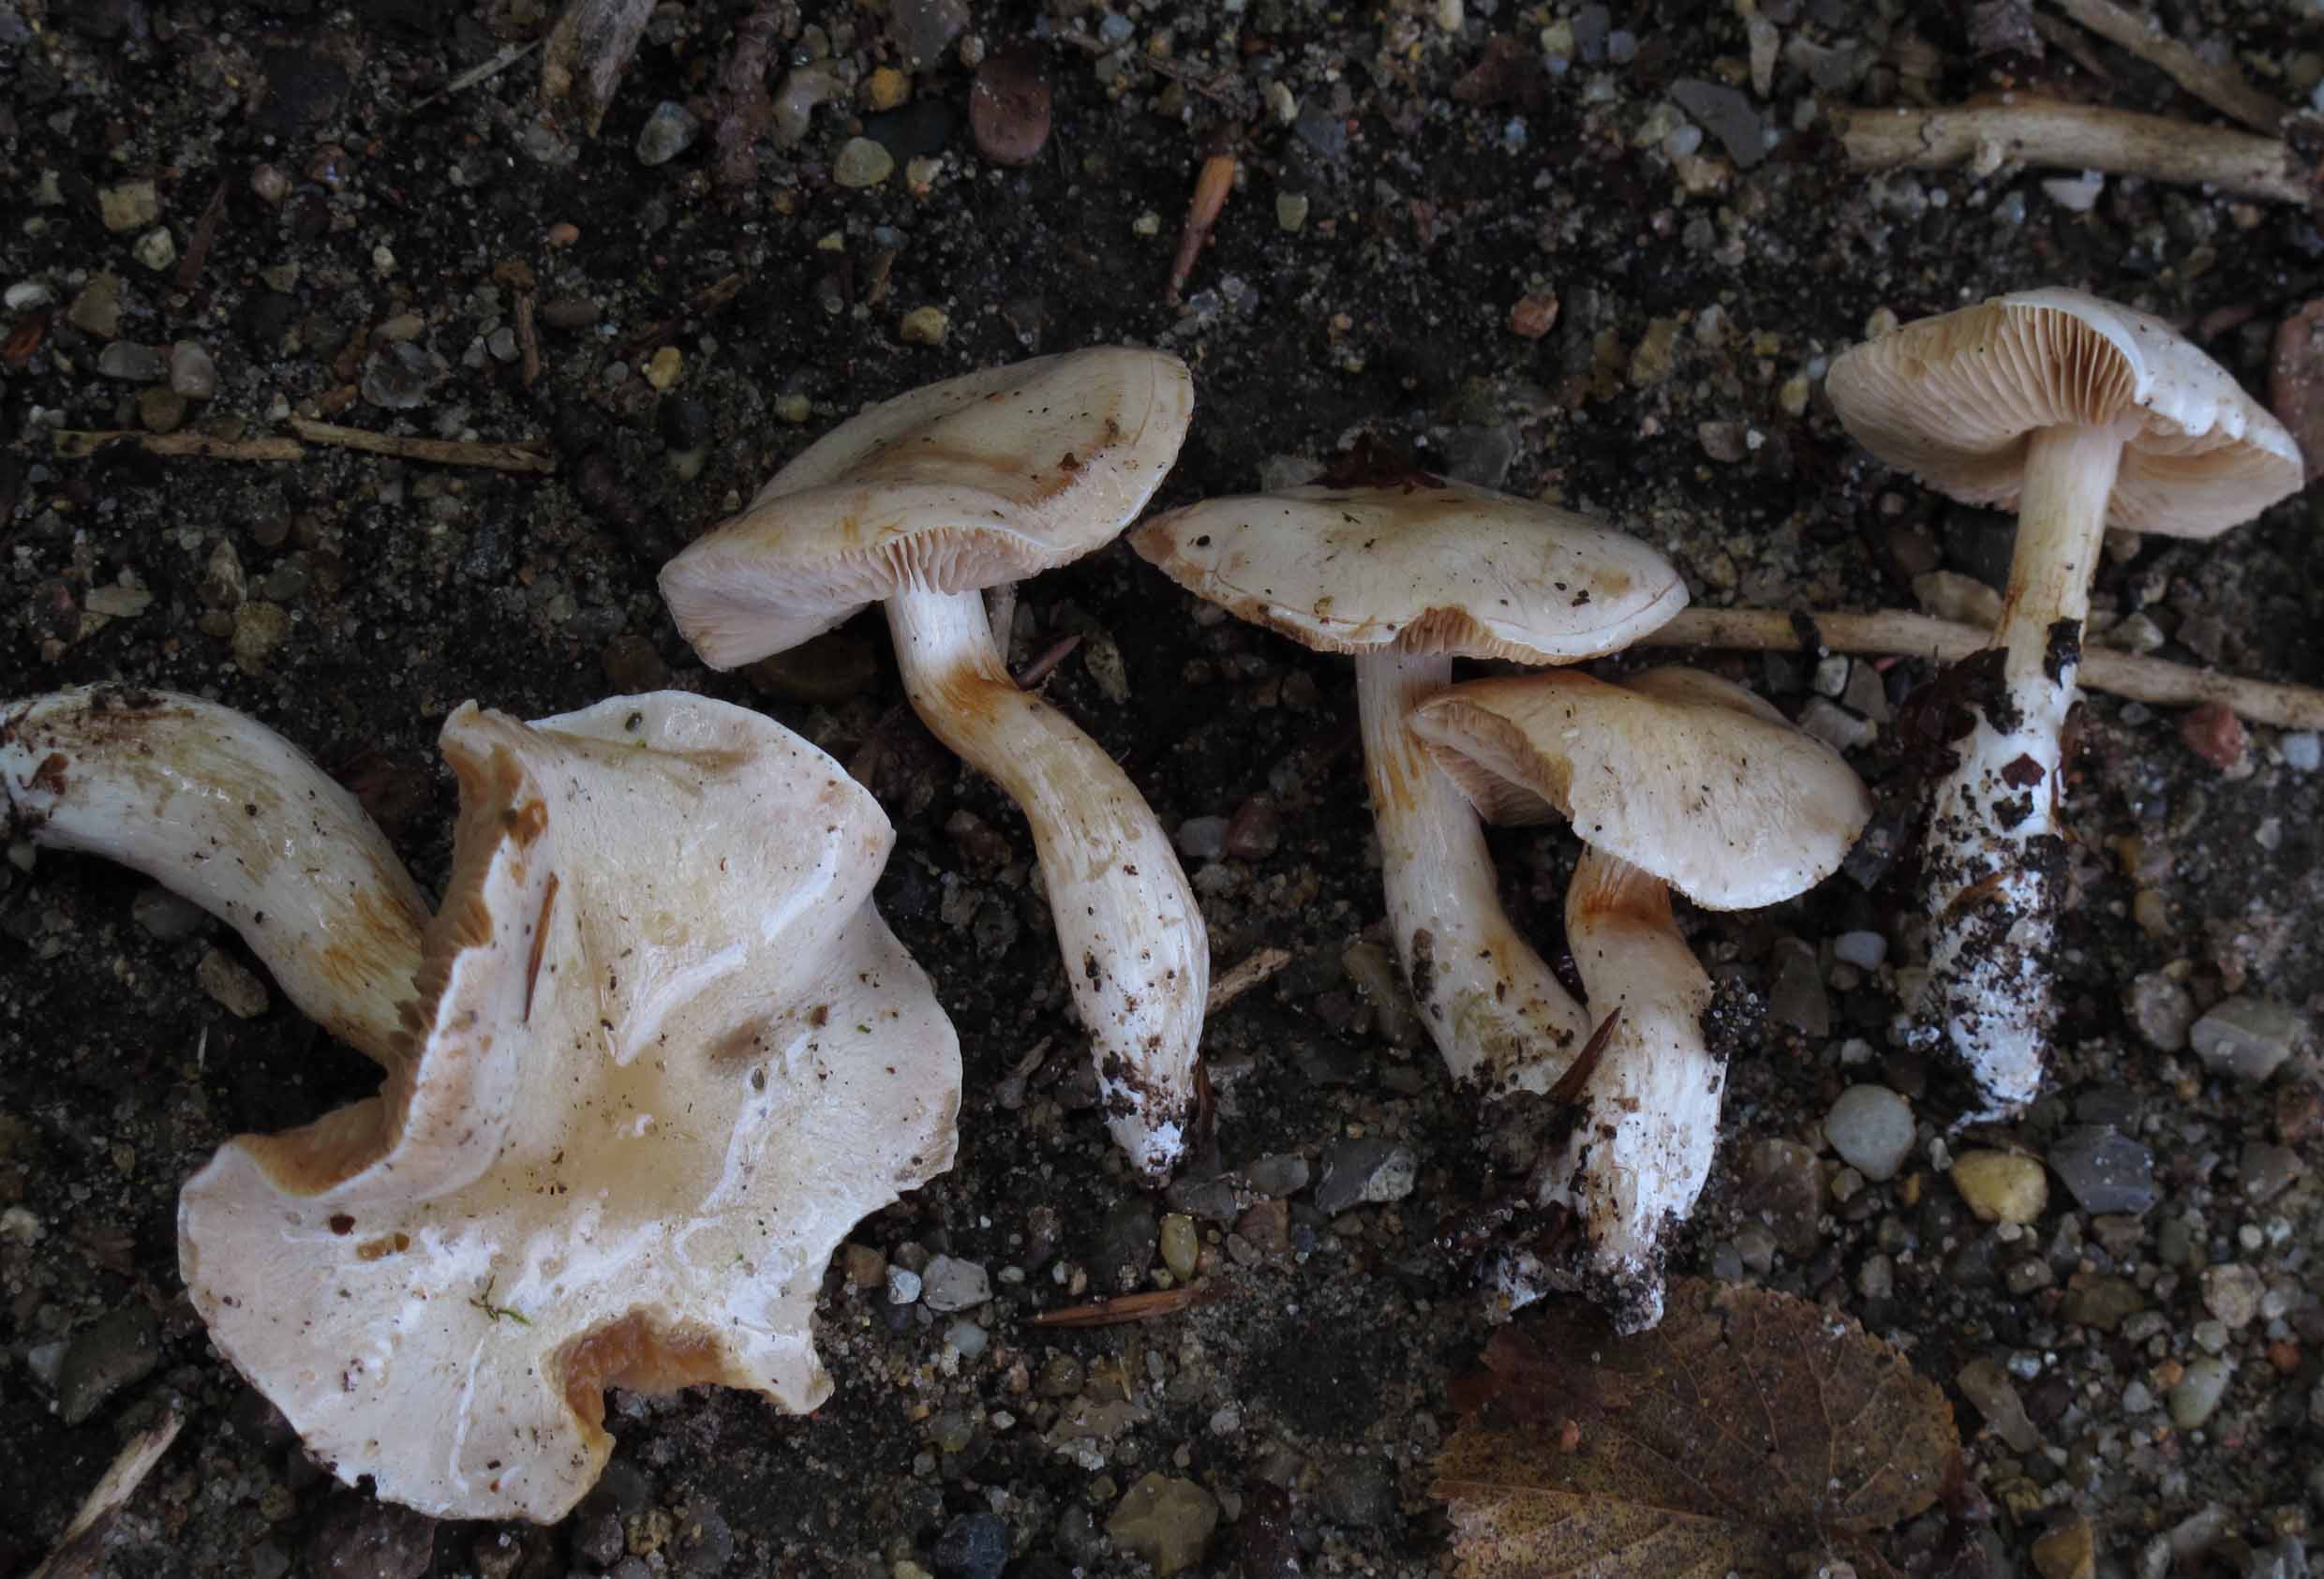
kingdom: Fungi
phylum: Basidiomycota
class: Agaricomycetes
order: Agaricales
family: Cortinariaceae
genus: Thaxterogaster
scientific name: Thaxterogaster barbatus
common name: elfenbens-slørhat
